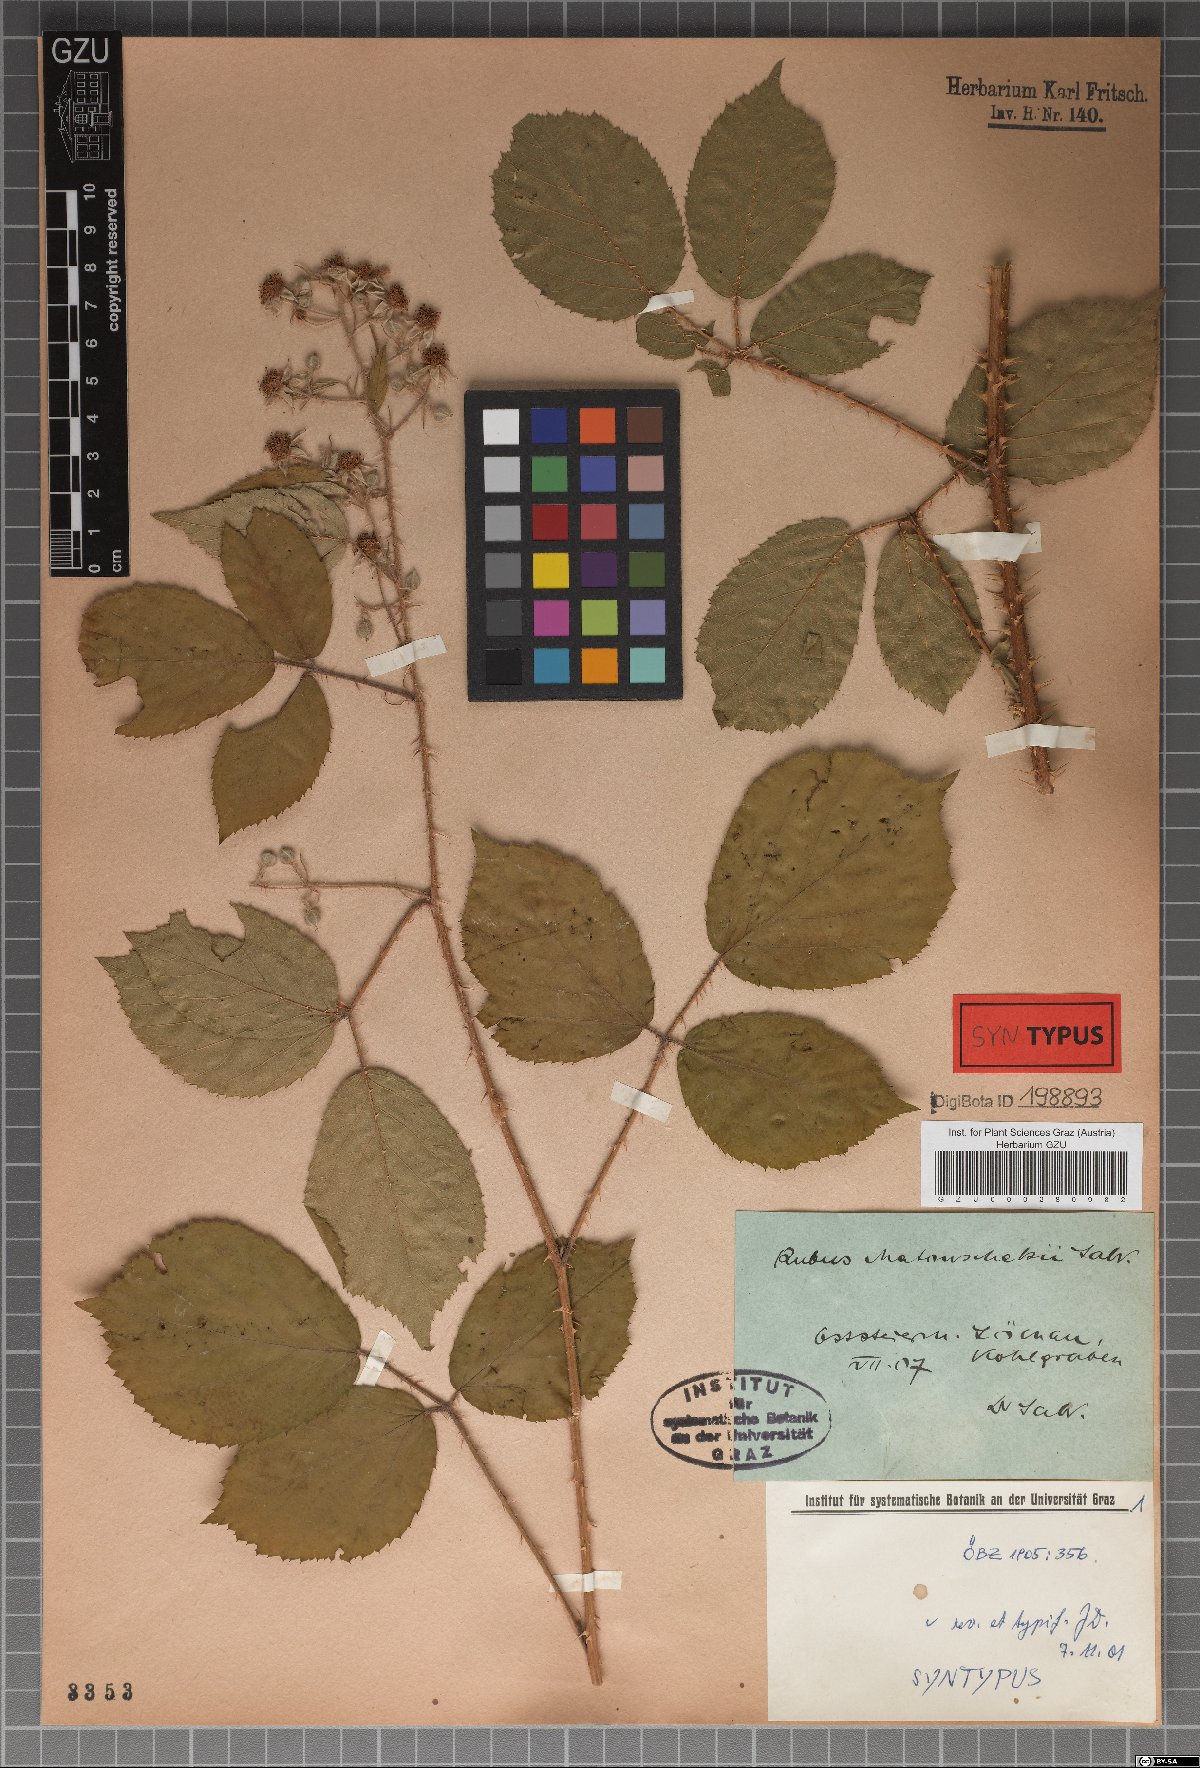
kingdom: Plantae
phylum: Tracheophyta
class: Magnoliopsida
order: Rosales
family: Rosaceae
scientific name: Rosaceae
